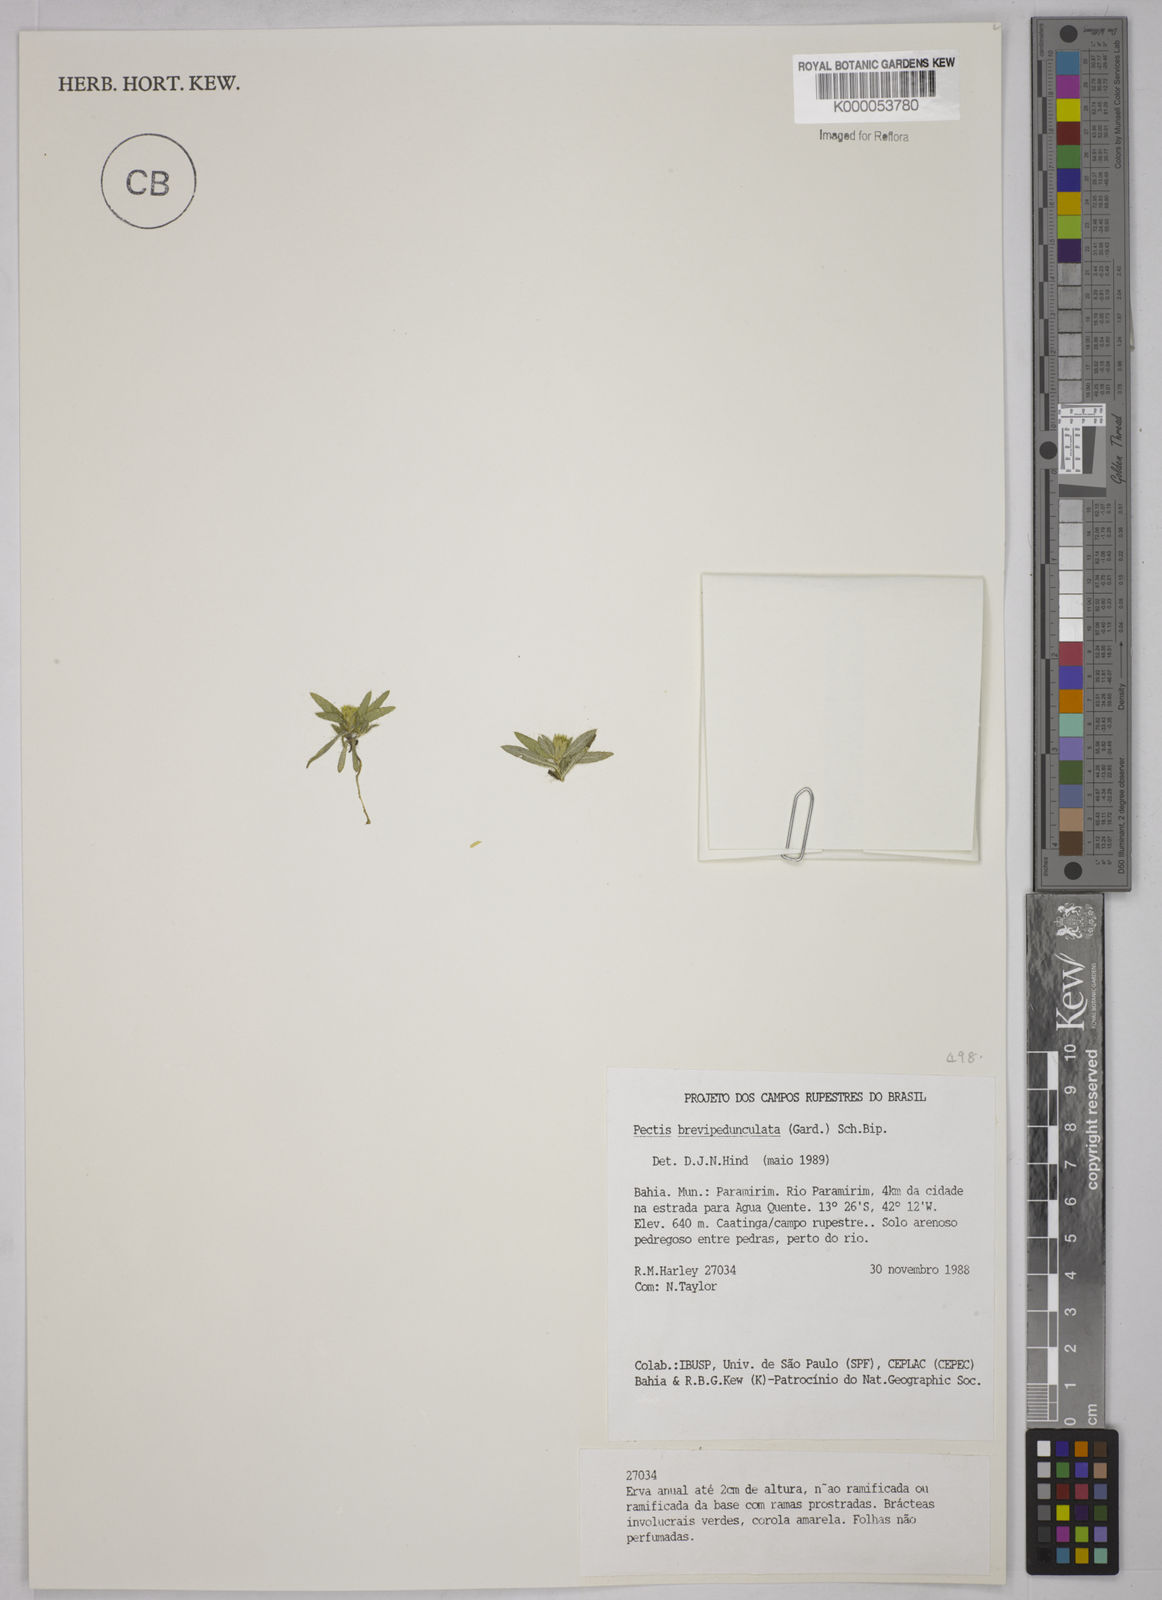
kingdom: Plantae
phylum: Tracheophyta
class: Magnoliopsida
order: Asterales
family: Asteraceae
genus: Pectis
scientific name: Pectis brevipedunculata
